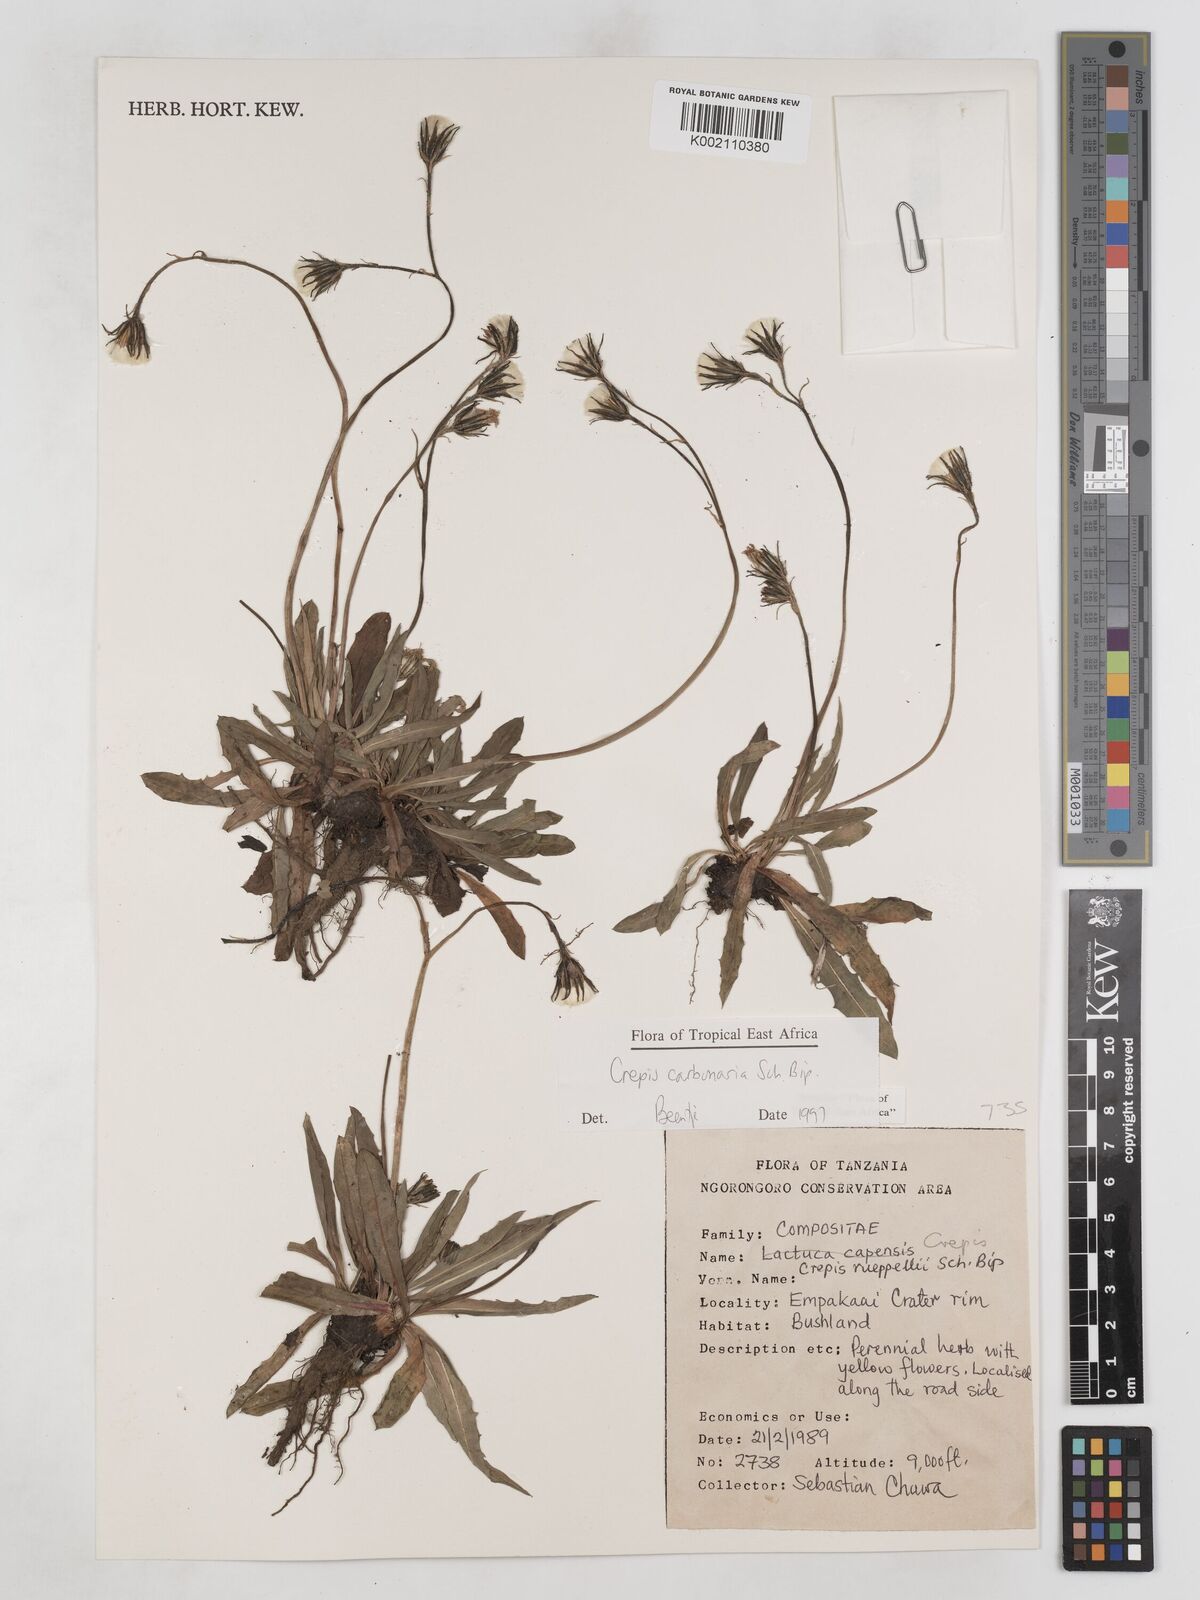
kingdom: Plantae
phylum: Tracheophyta
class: Magnoliopsida
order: Asterales
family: Asteraceae
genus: Crepis
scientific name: Crepis carbonaria
